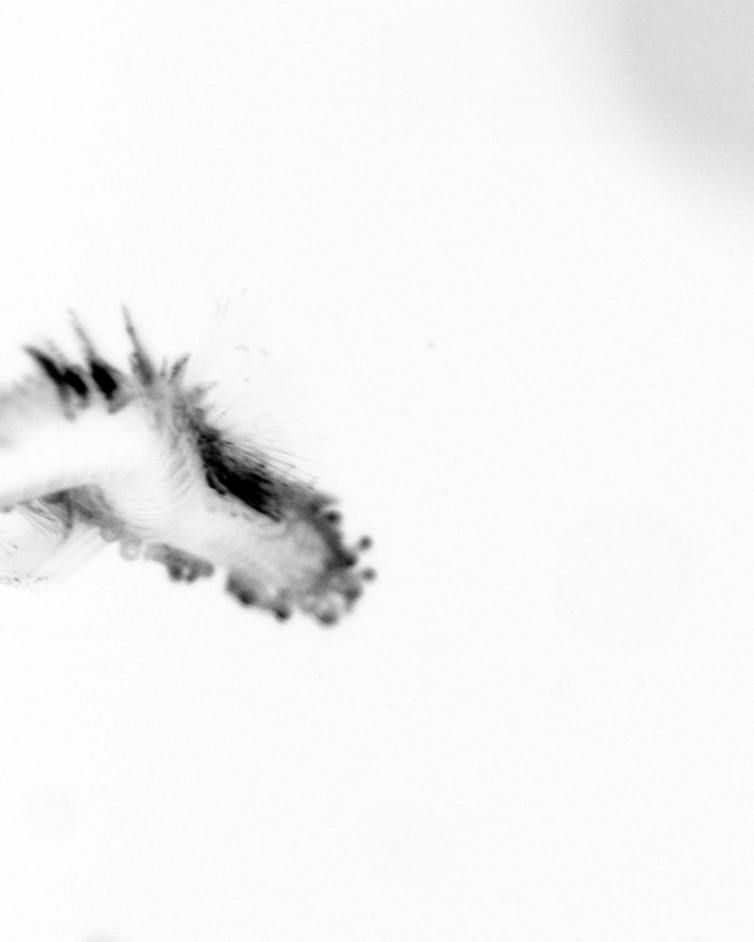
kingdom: Animalia
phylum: Annelida
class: Polychaeta
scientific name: Polychaeta
